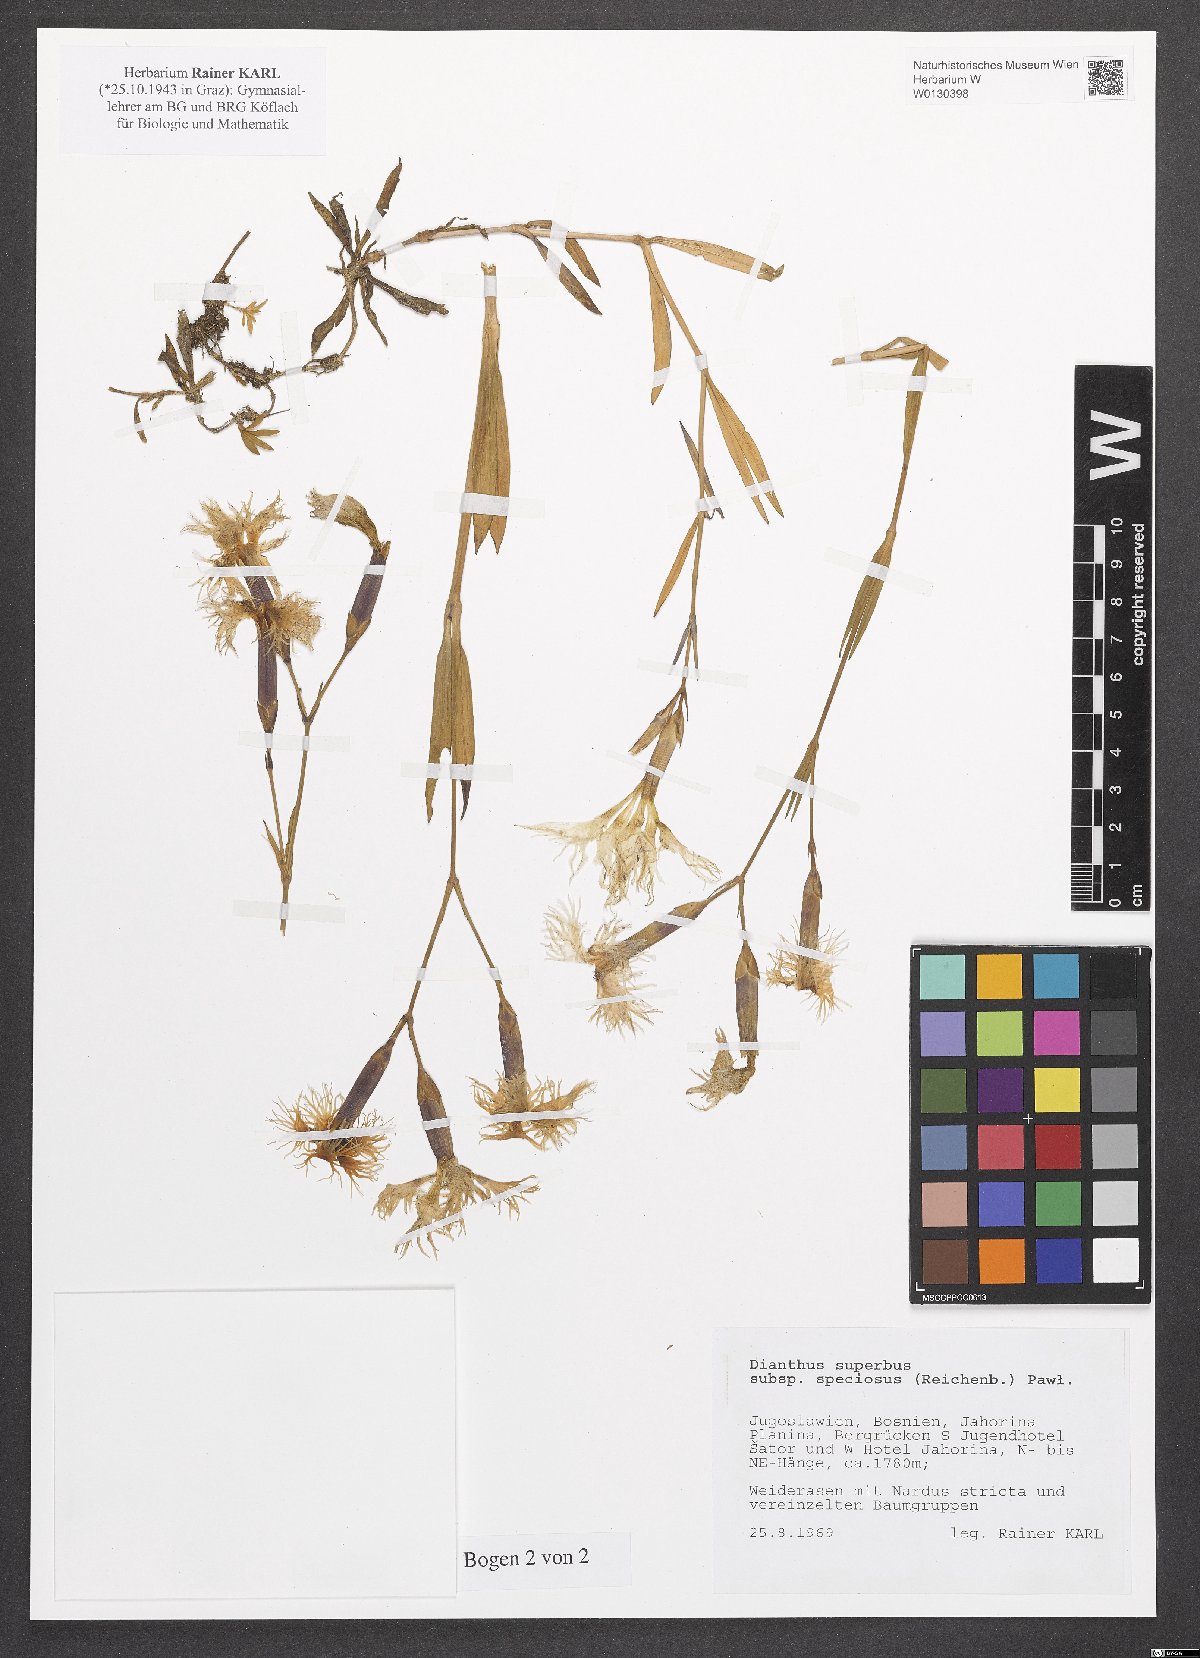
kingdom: Plantae
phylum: Tracheophyta
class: Magnoliopsida
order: Caryophyllales
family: Caryophyllaceae
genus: Dianthus
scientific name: Dianthus superbus
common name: Fringed pink
